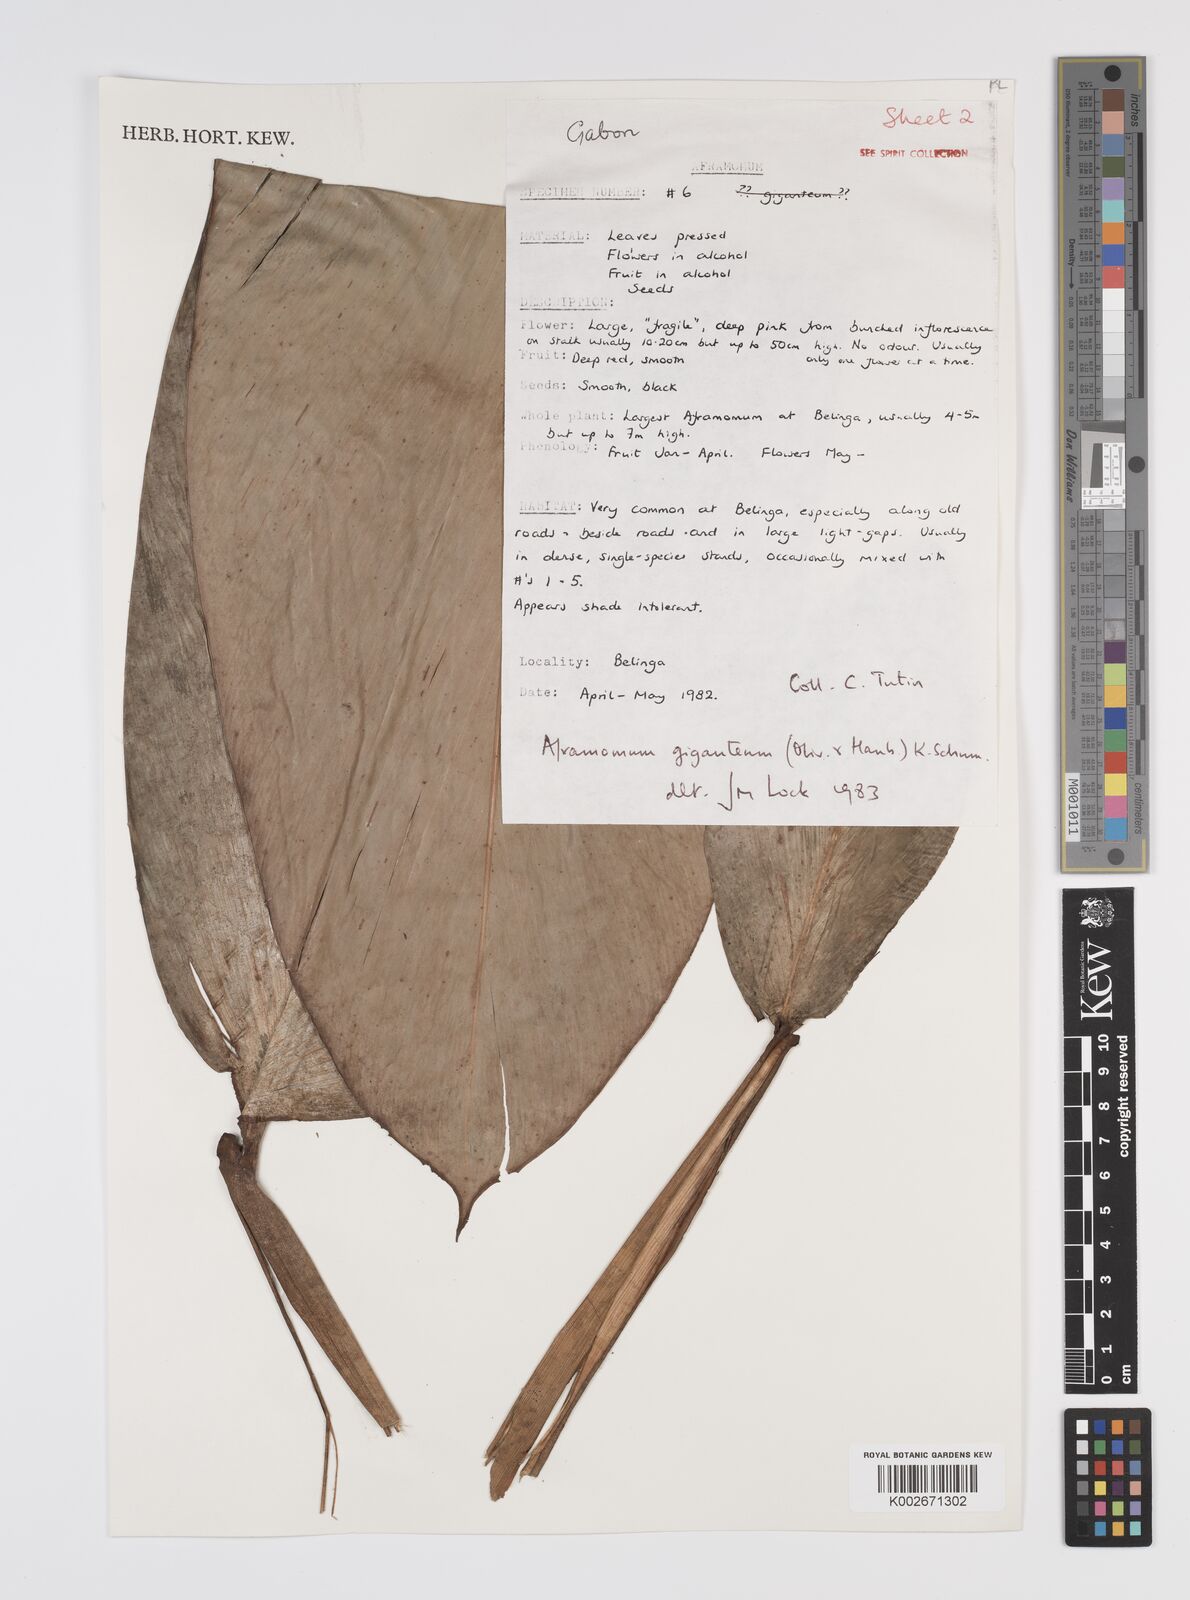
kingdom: Plantae
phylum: Tracheophyta
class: Liliopsida
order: Zingiberales
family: Zingiberaceae
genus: Aframomum
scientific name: Aframomum giganteum
